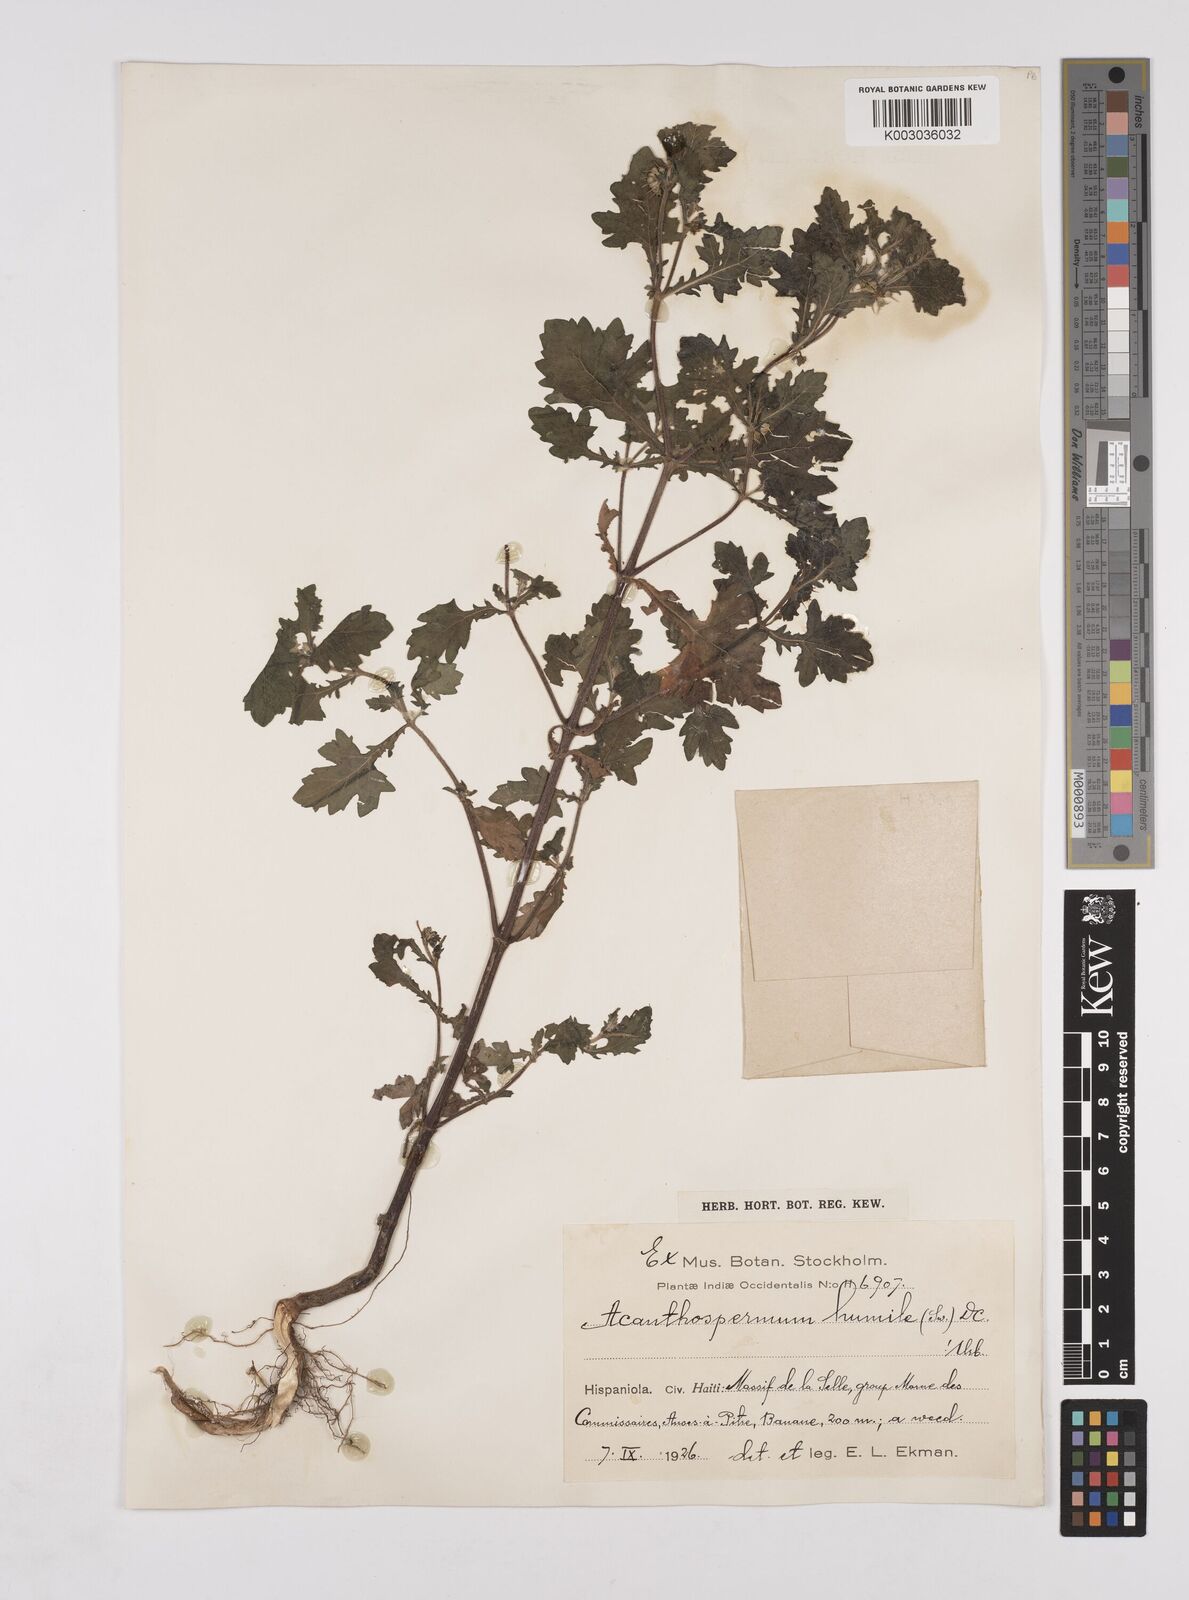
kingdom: Plantae
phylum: Tracheophyta
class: Magnoliopsida
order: Asterales
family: Asteraceae
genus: Acanthospermum
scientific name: Acanthospermum humile
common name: Low starbur
